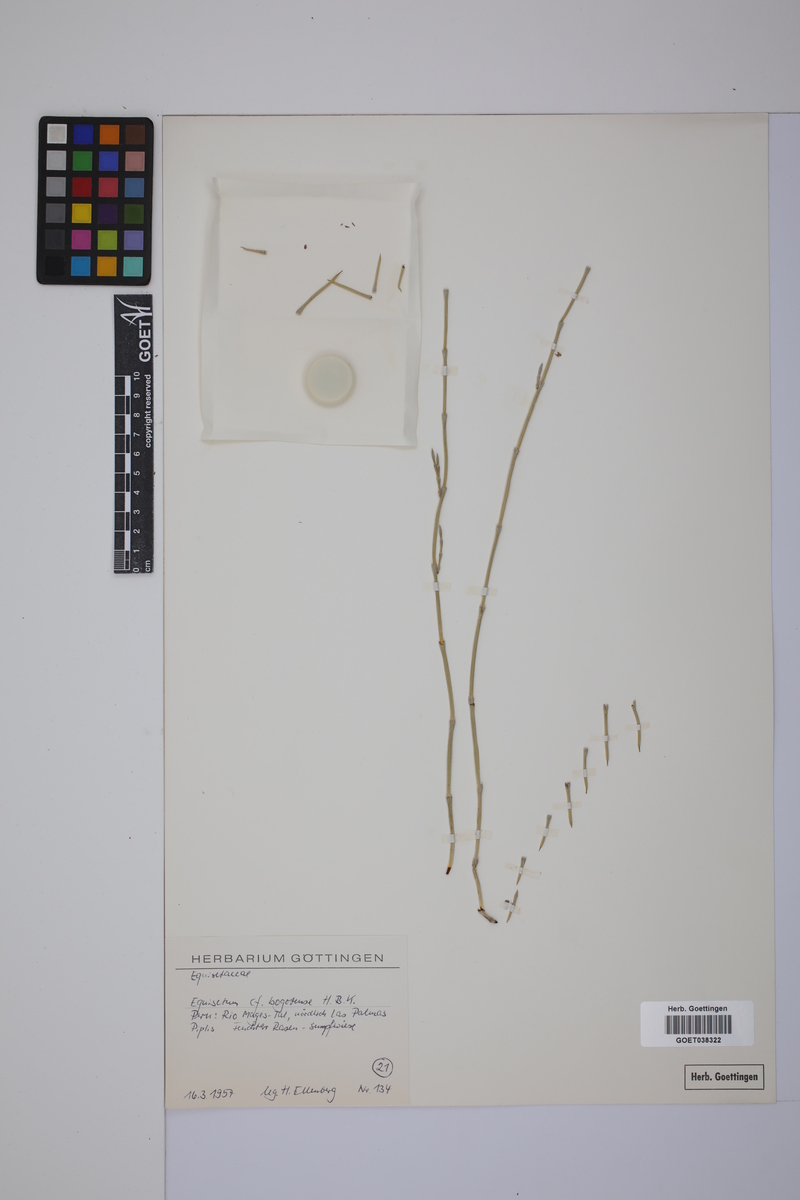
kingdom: Plantae
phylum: Tracheophyta
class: Polypodiopsida
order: Equisetales
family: Equisetaceae
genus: Equisetum
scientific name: Equisetum bogotense
